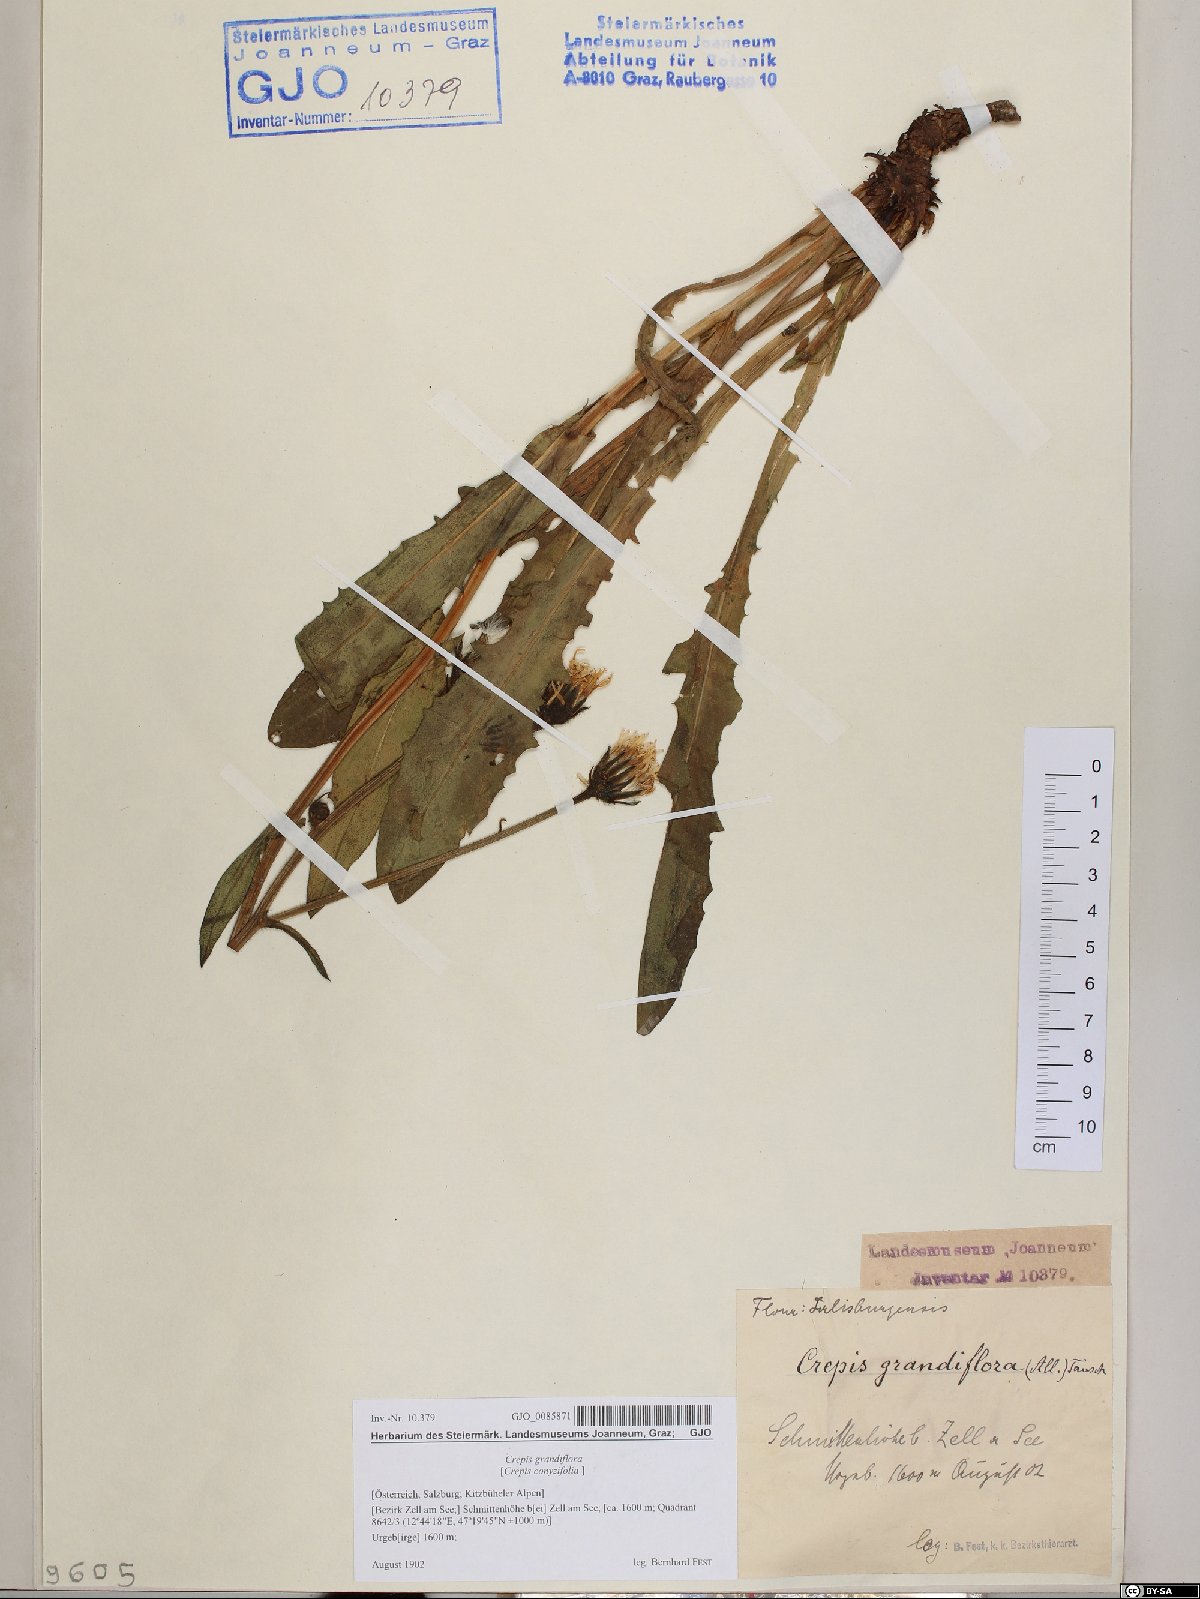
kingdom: Plantae
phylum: Tracheophyta
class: Magnoliopsida
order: Asterales
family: Asteraceae
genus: Crepis
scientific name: Crepis pyrenaica
